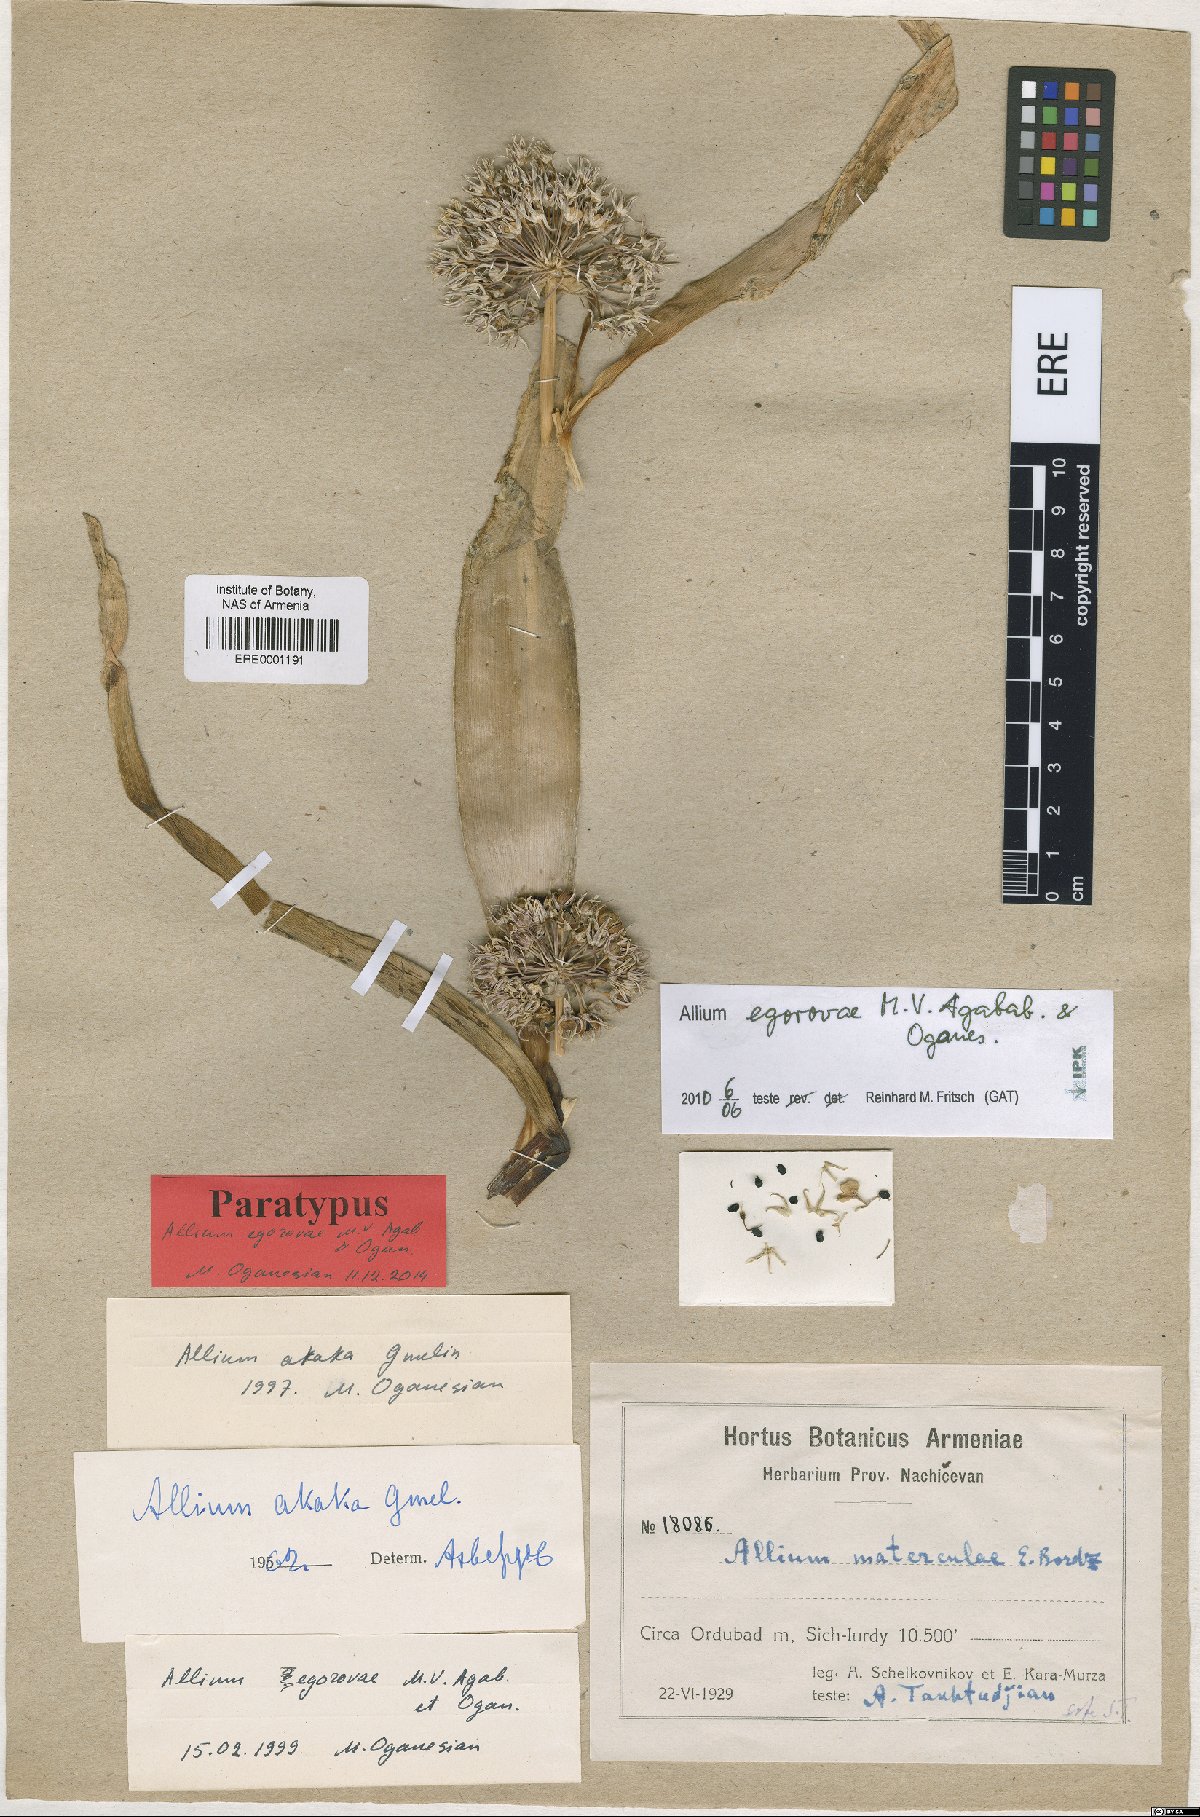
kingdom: Plantae
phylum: Tracheophyta
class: Liliopsida
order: Asparagales
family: Amaryllidaceae
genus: Allium
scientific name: Allium egorovae
